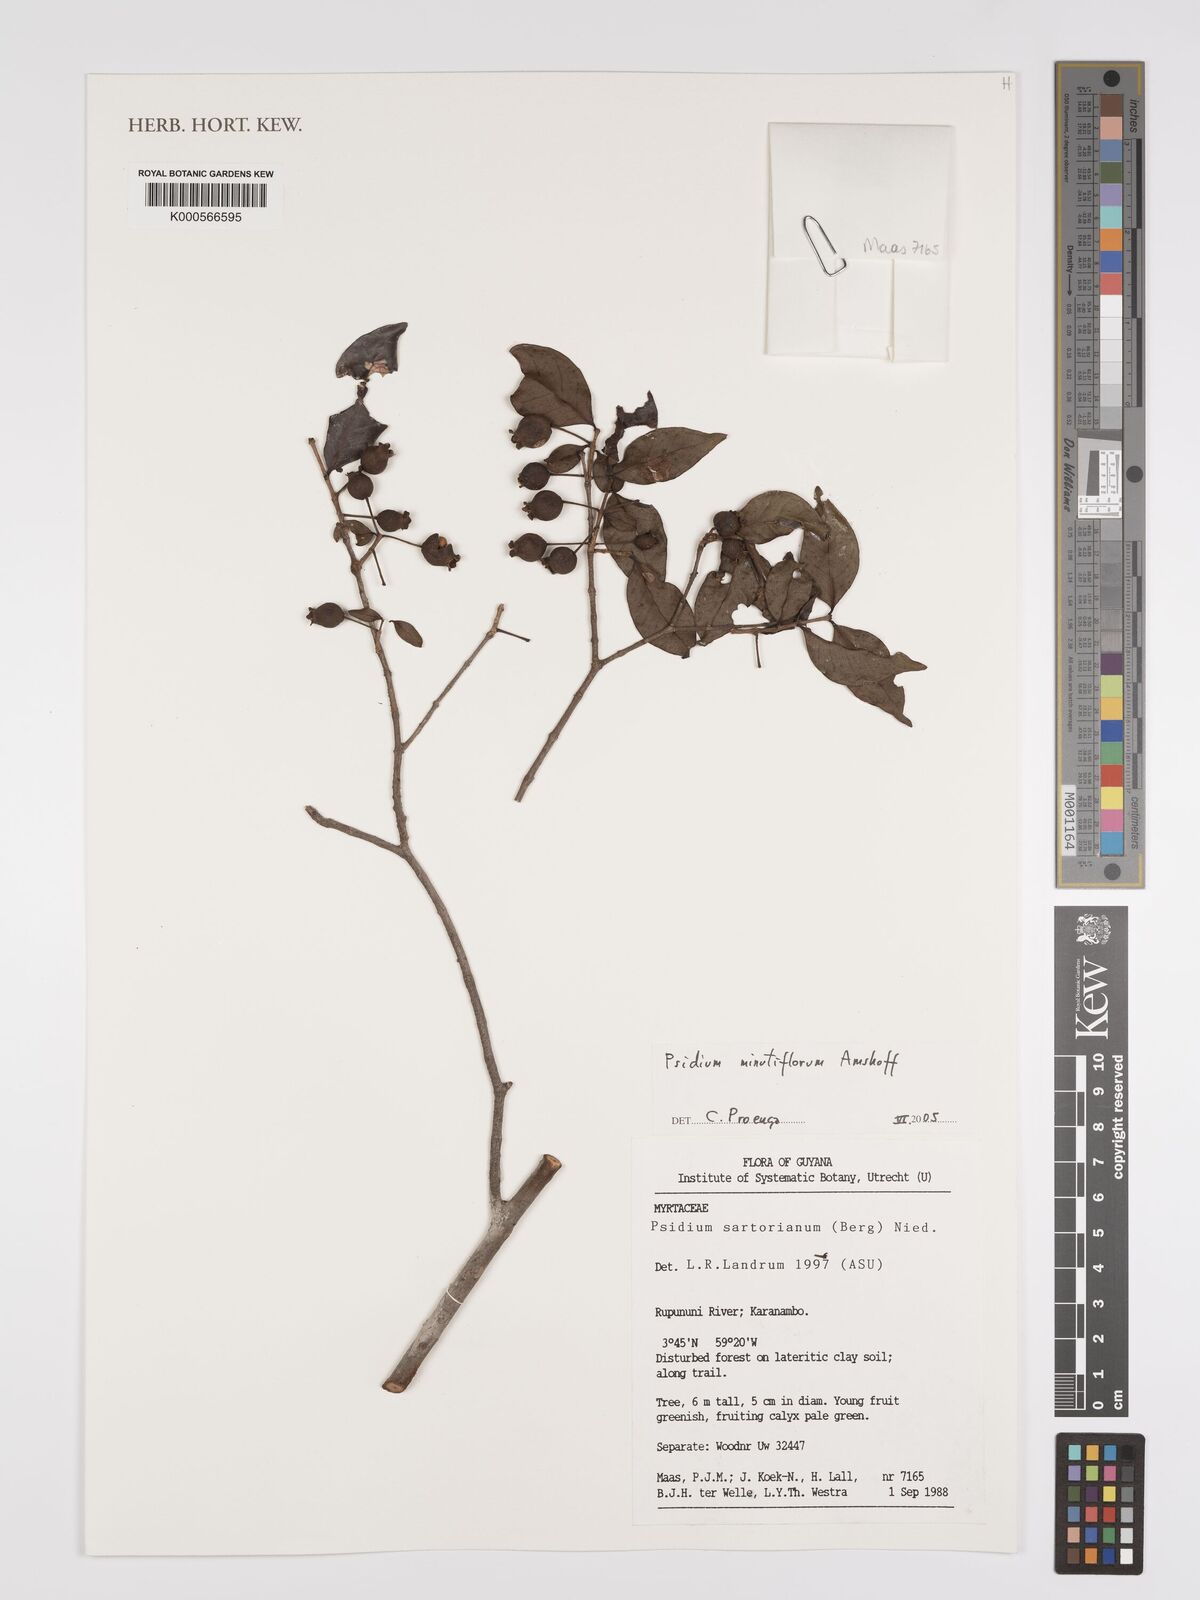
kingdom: Plantae
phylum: Tracheophyta
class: Magnoliopsida
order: Myrtales
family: Myrtaceae
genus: Psidium
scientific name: Psidium sartorianum
